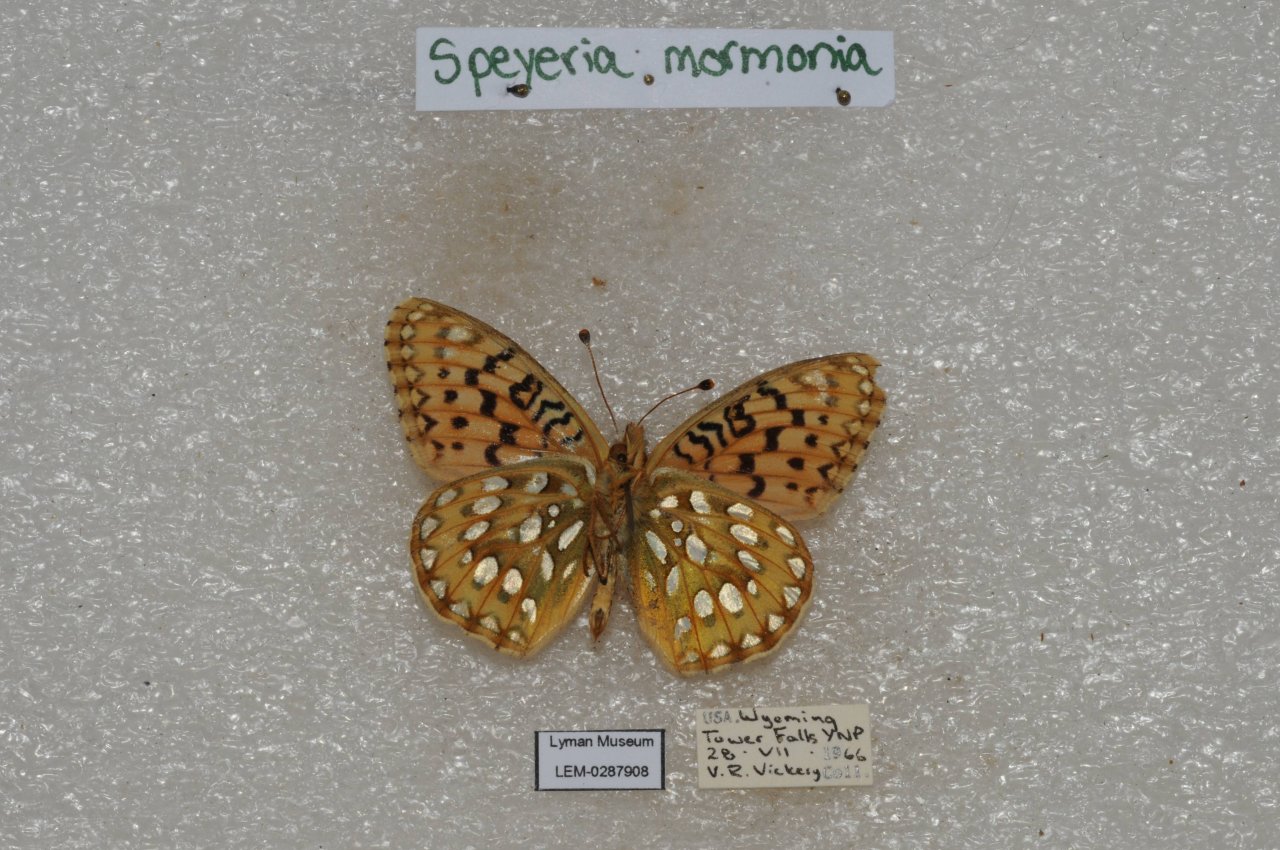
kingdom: Animalia
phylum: Arthropoda
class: Insecta
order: Lepidoptera
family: Nymphalidae
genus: Speyeria
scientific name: Speyeria mormonia
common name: Mormon Fritillary
